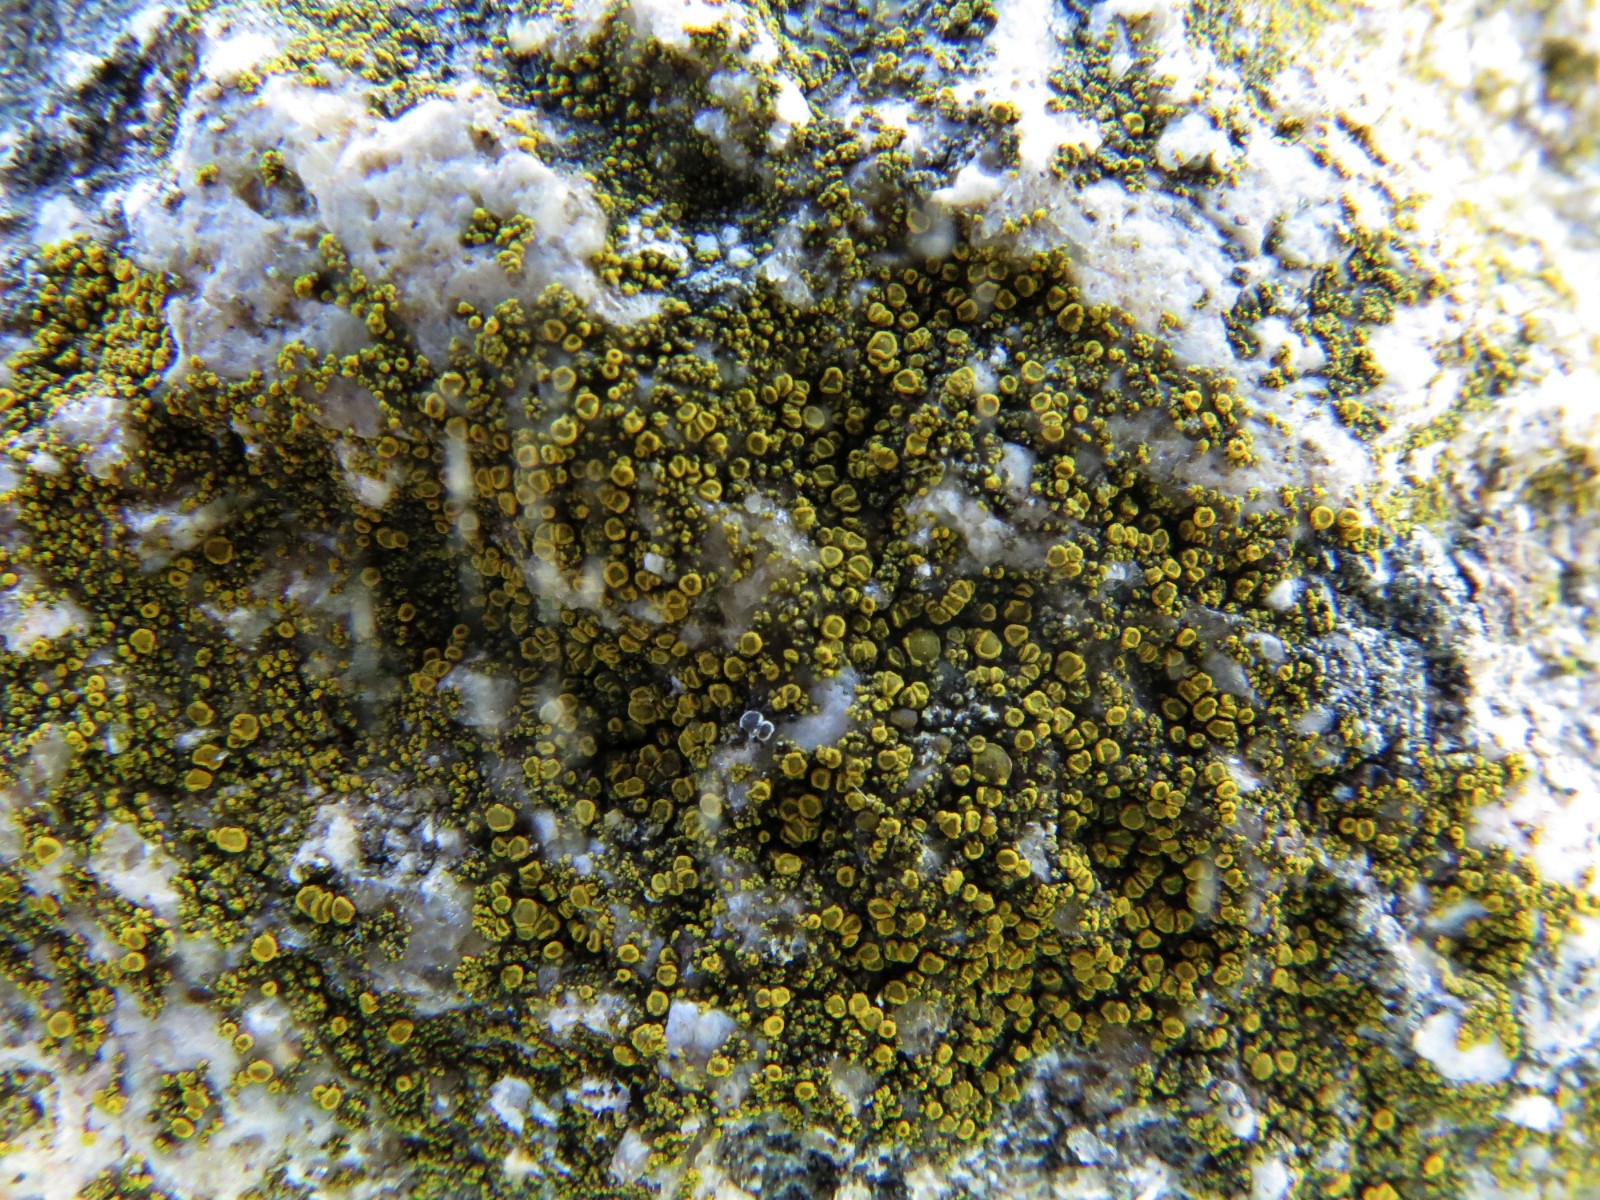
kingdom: Fungi
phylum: Ascomycota
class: Candelariomycetes
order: Candelariales
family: Candelariaceae
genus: Candelariella
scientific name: Candelariella vitellina
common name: almindelig æggeblommelav
